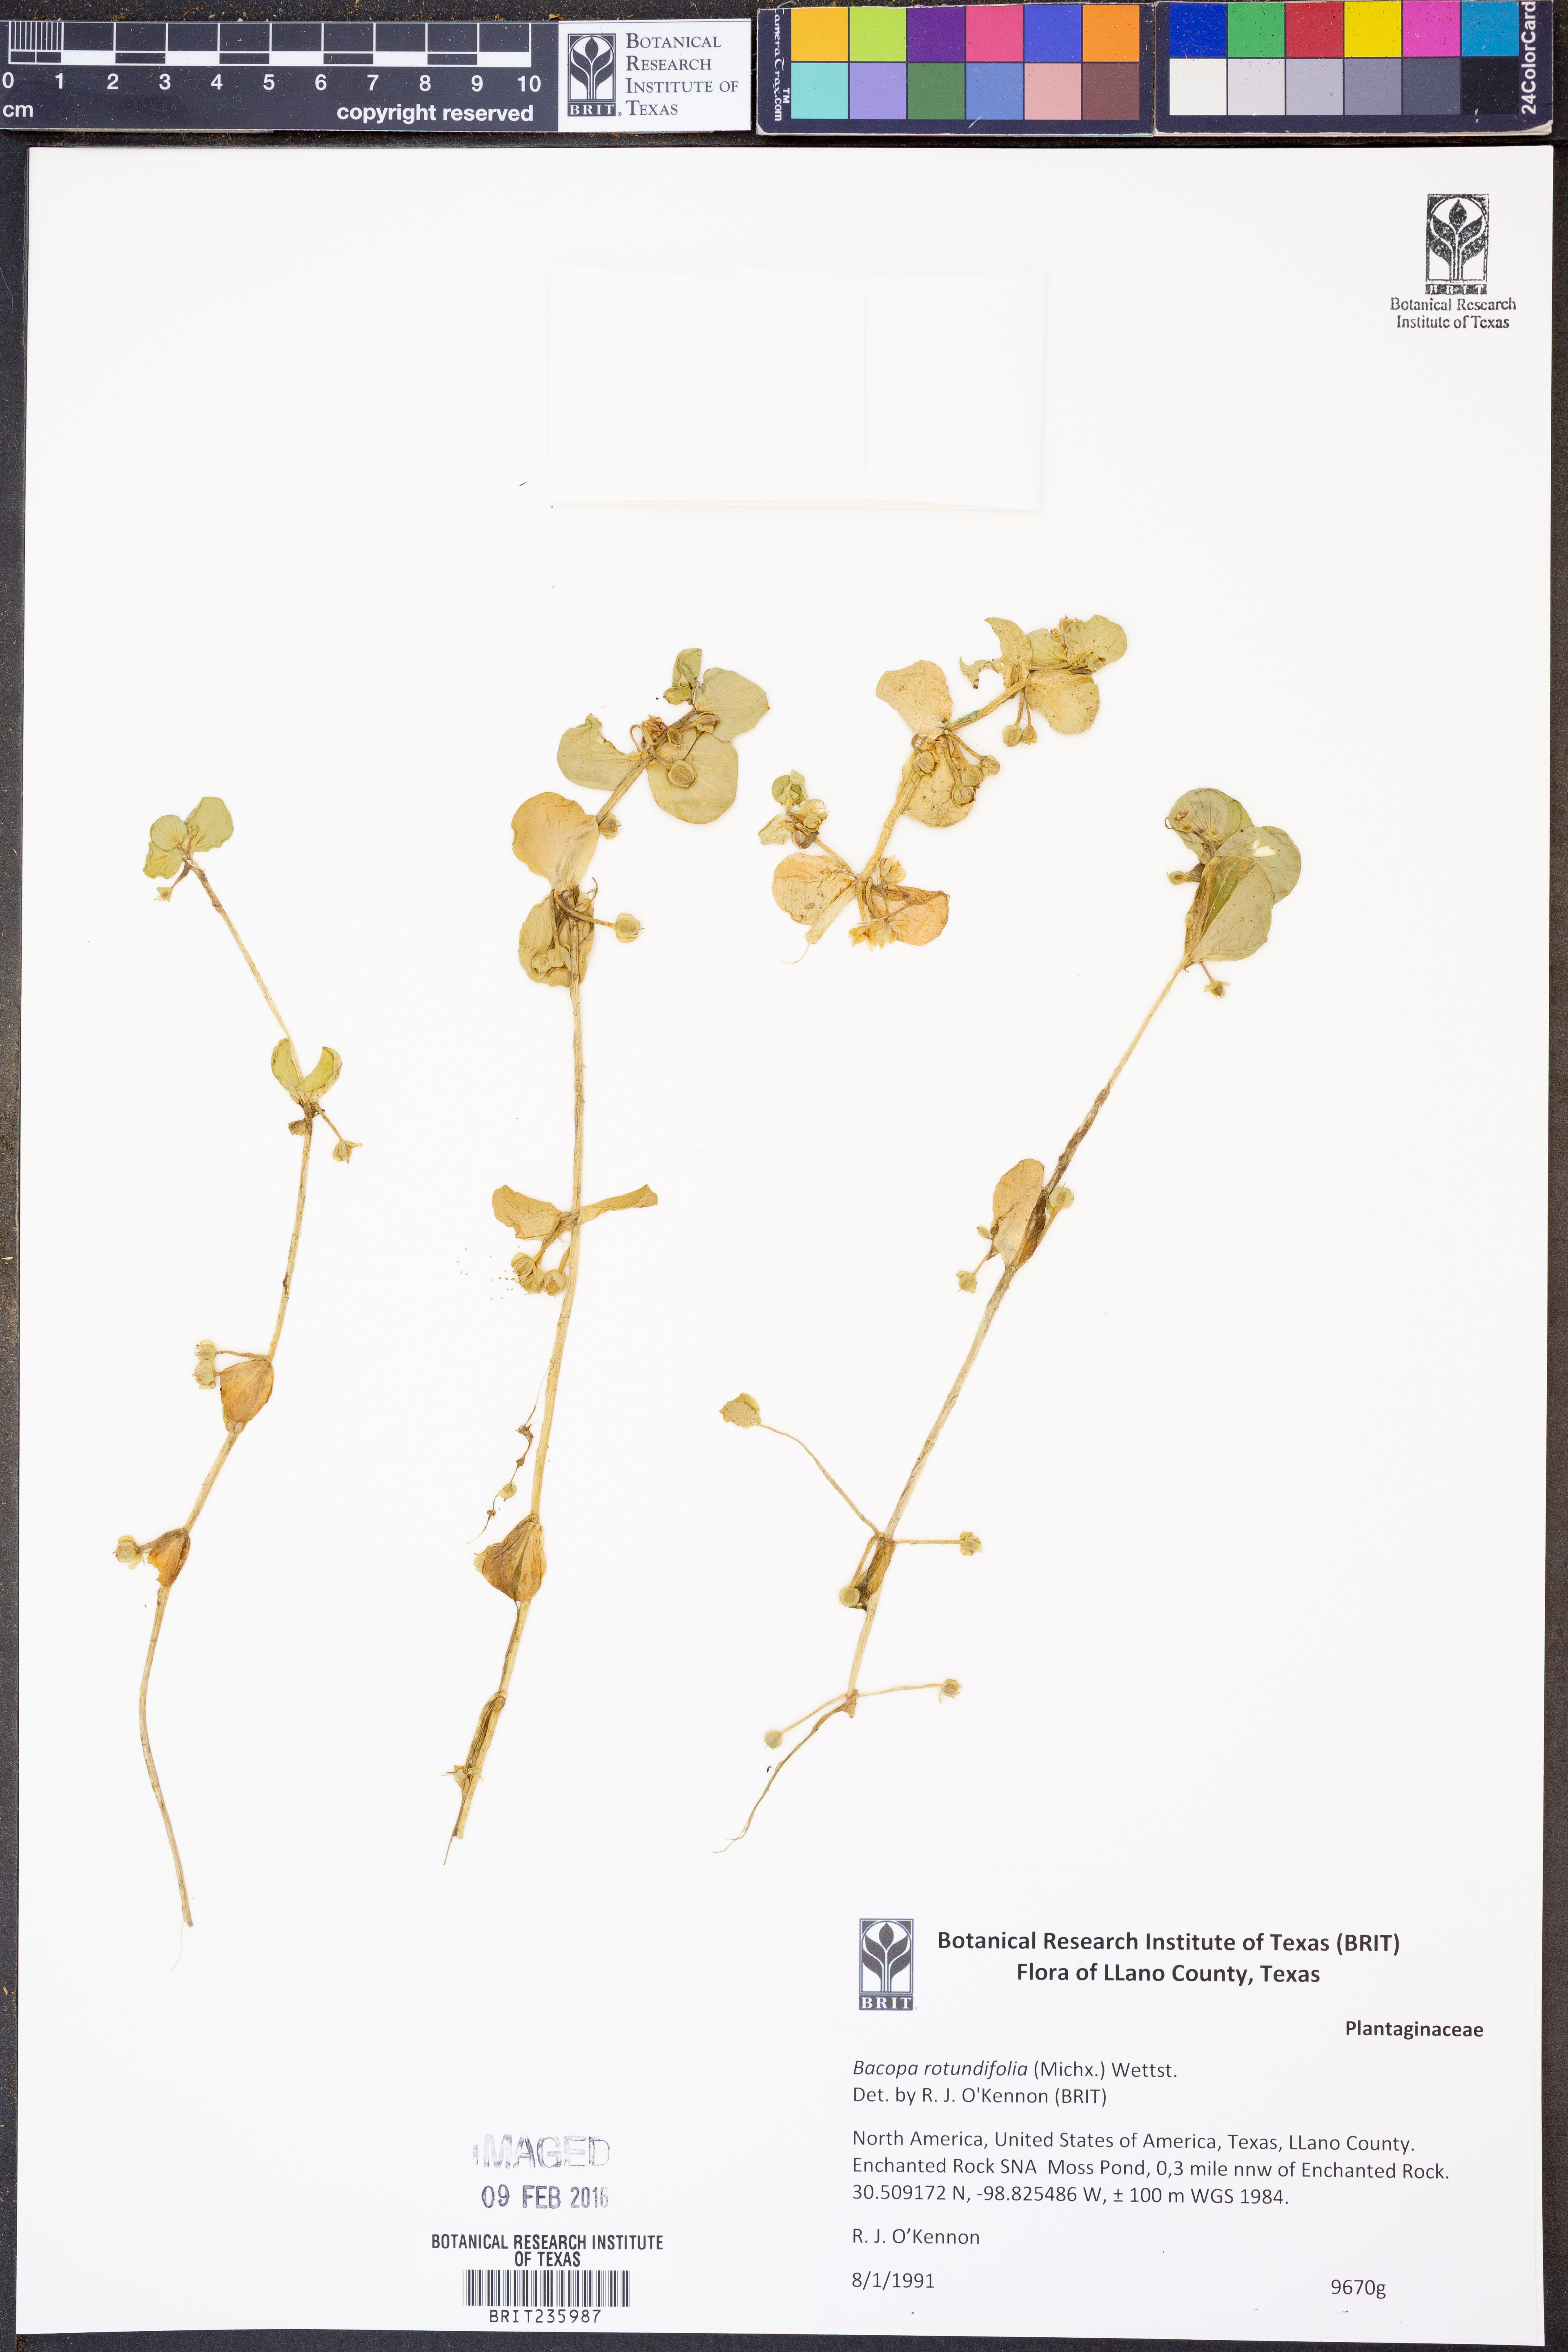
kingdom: Plantae
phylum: Tracheophyta
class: Magnoliopsida
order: Lamiales
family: Plantaginaceae
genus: Bacopa
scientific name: Bacopa rotundifolia
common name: Disc water hyssop
